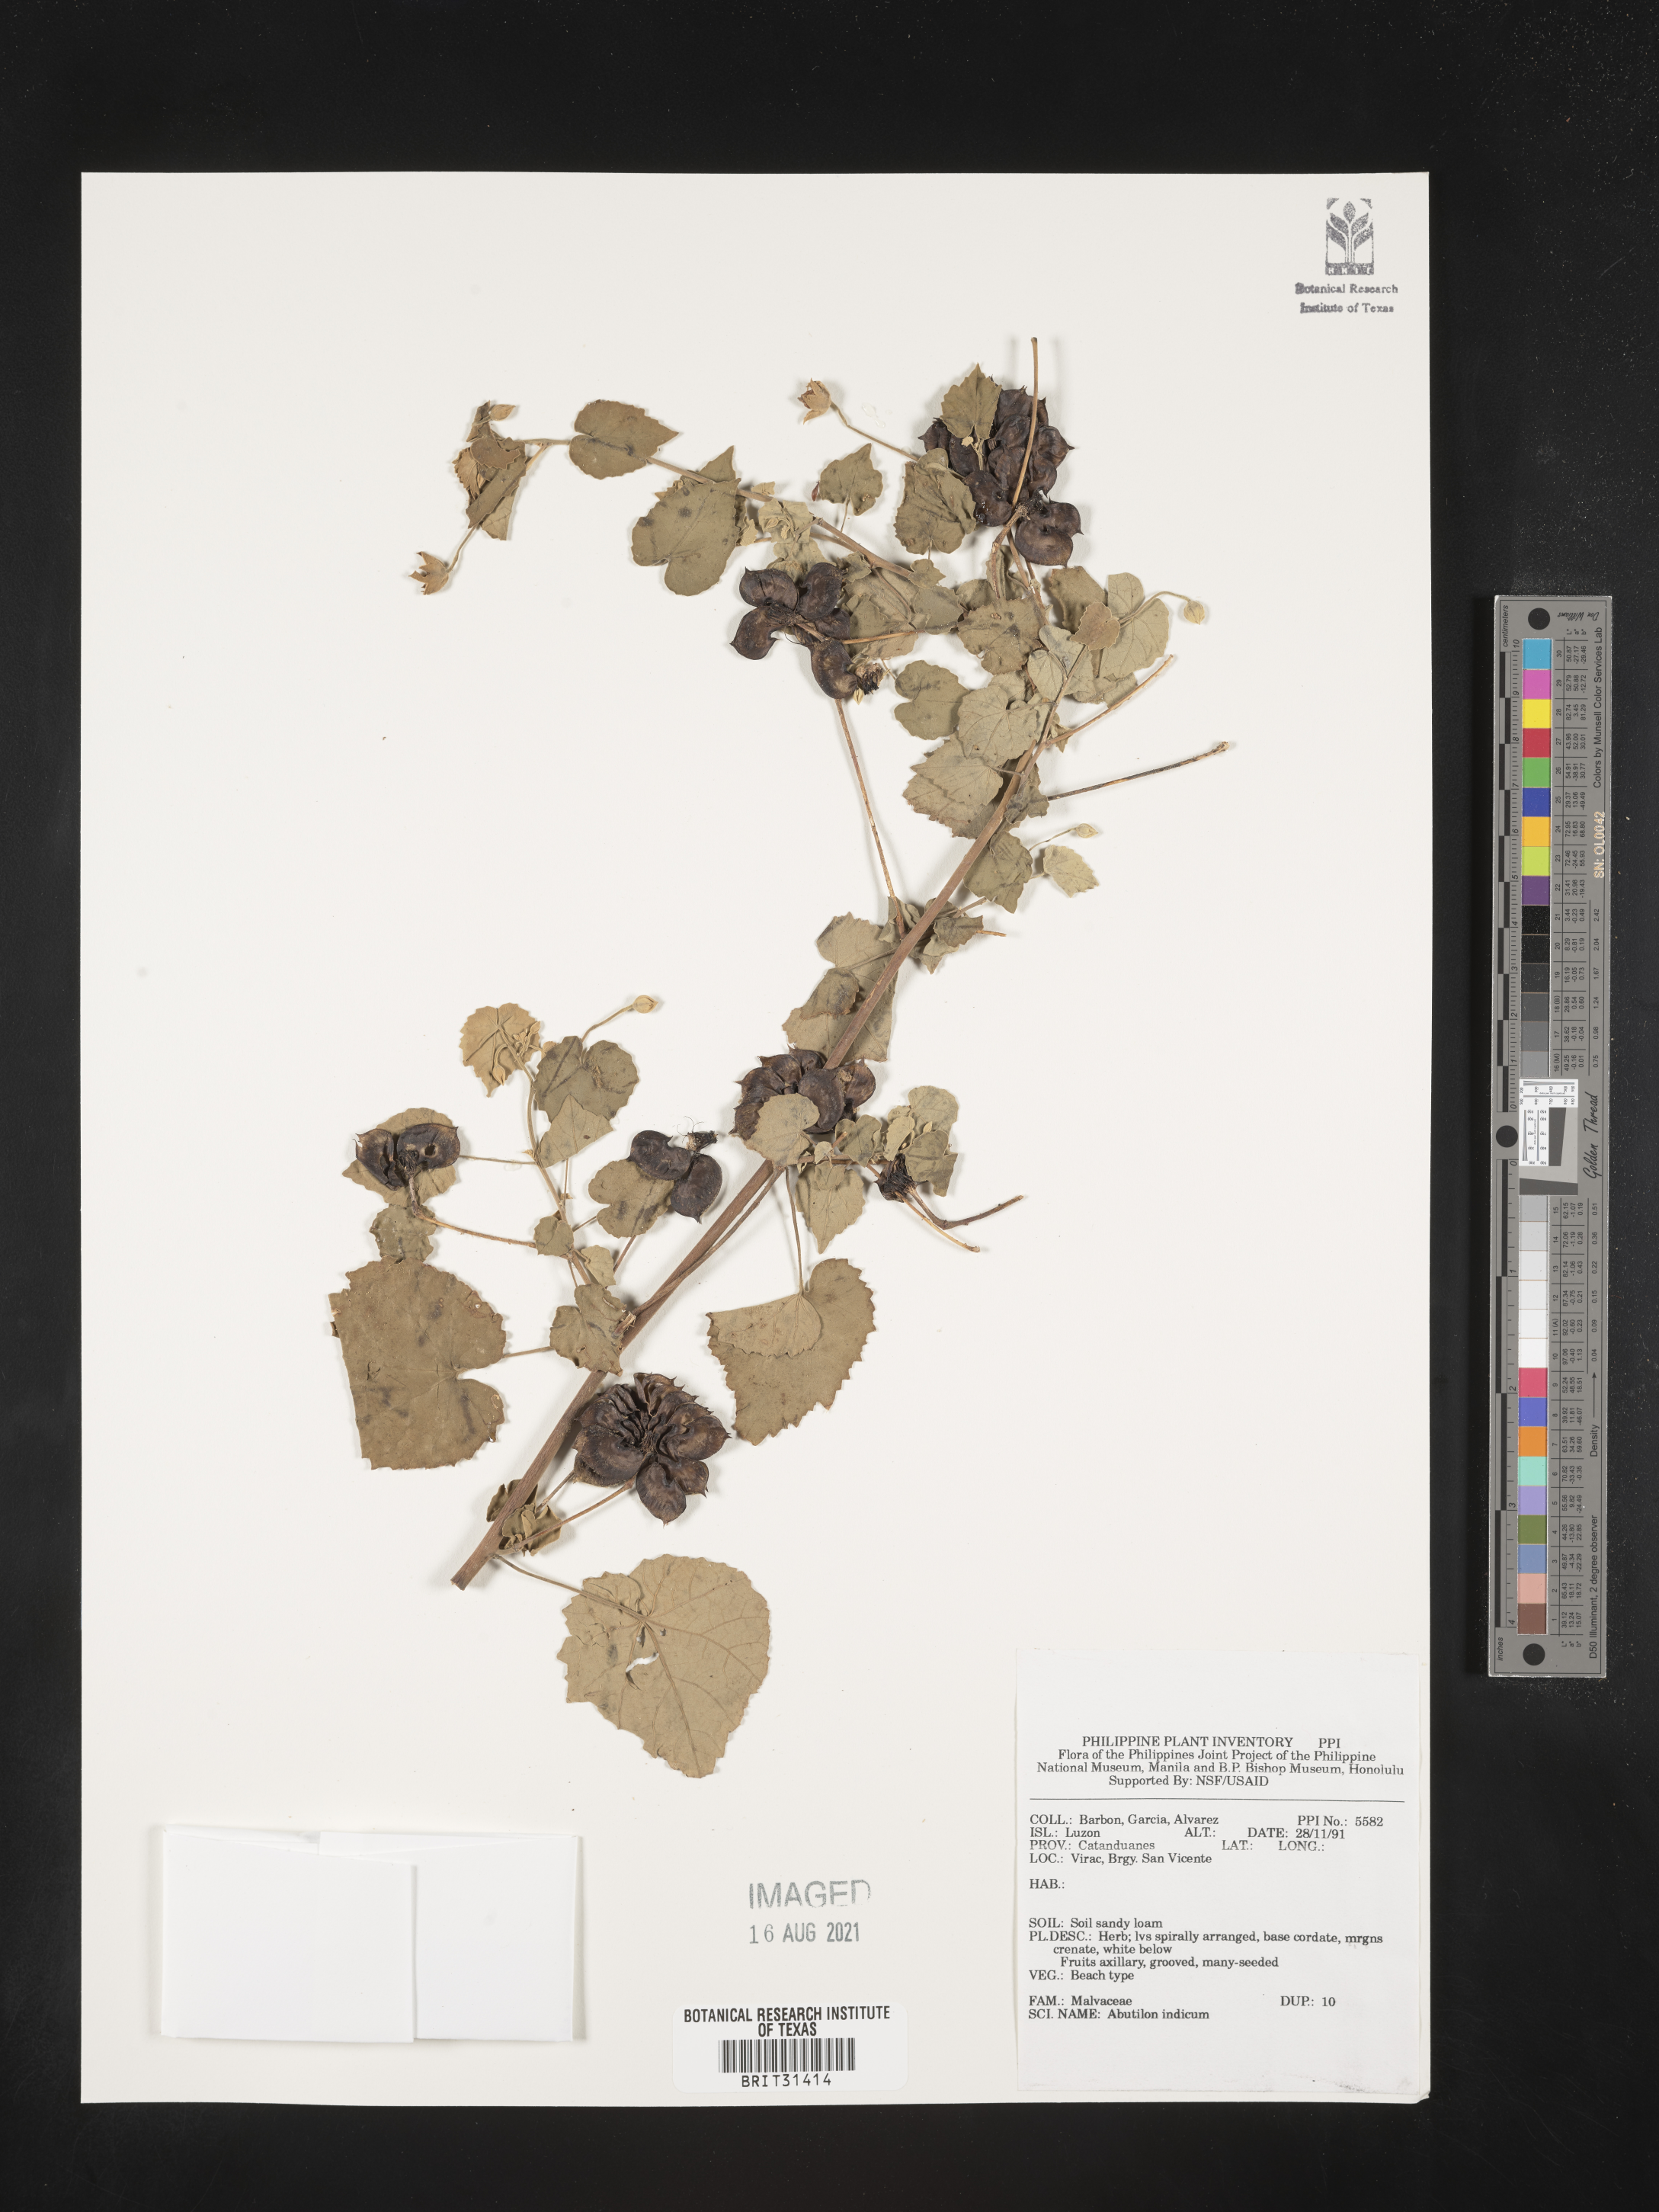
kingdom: Plantae
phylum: Tracheophyta
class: Magnoliopsida
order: Malvales
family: Malvaceae
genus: Abutilon
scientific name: Abutilon indicum
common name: Indian abutilon
